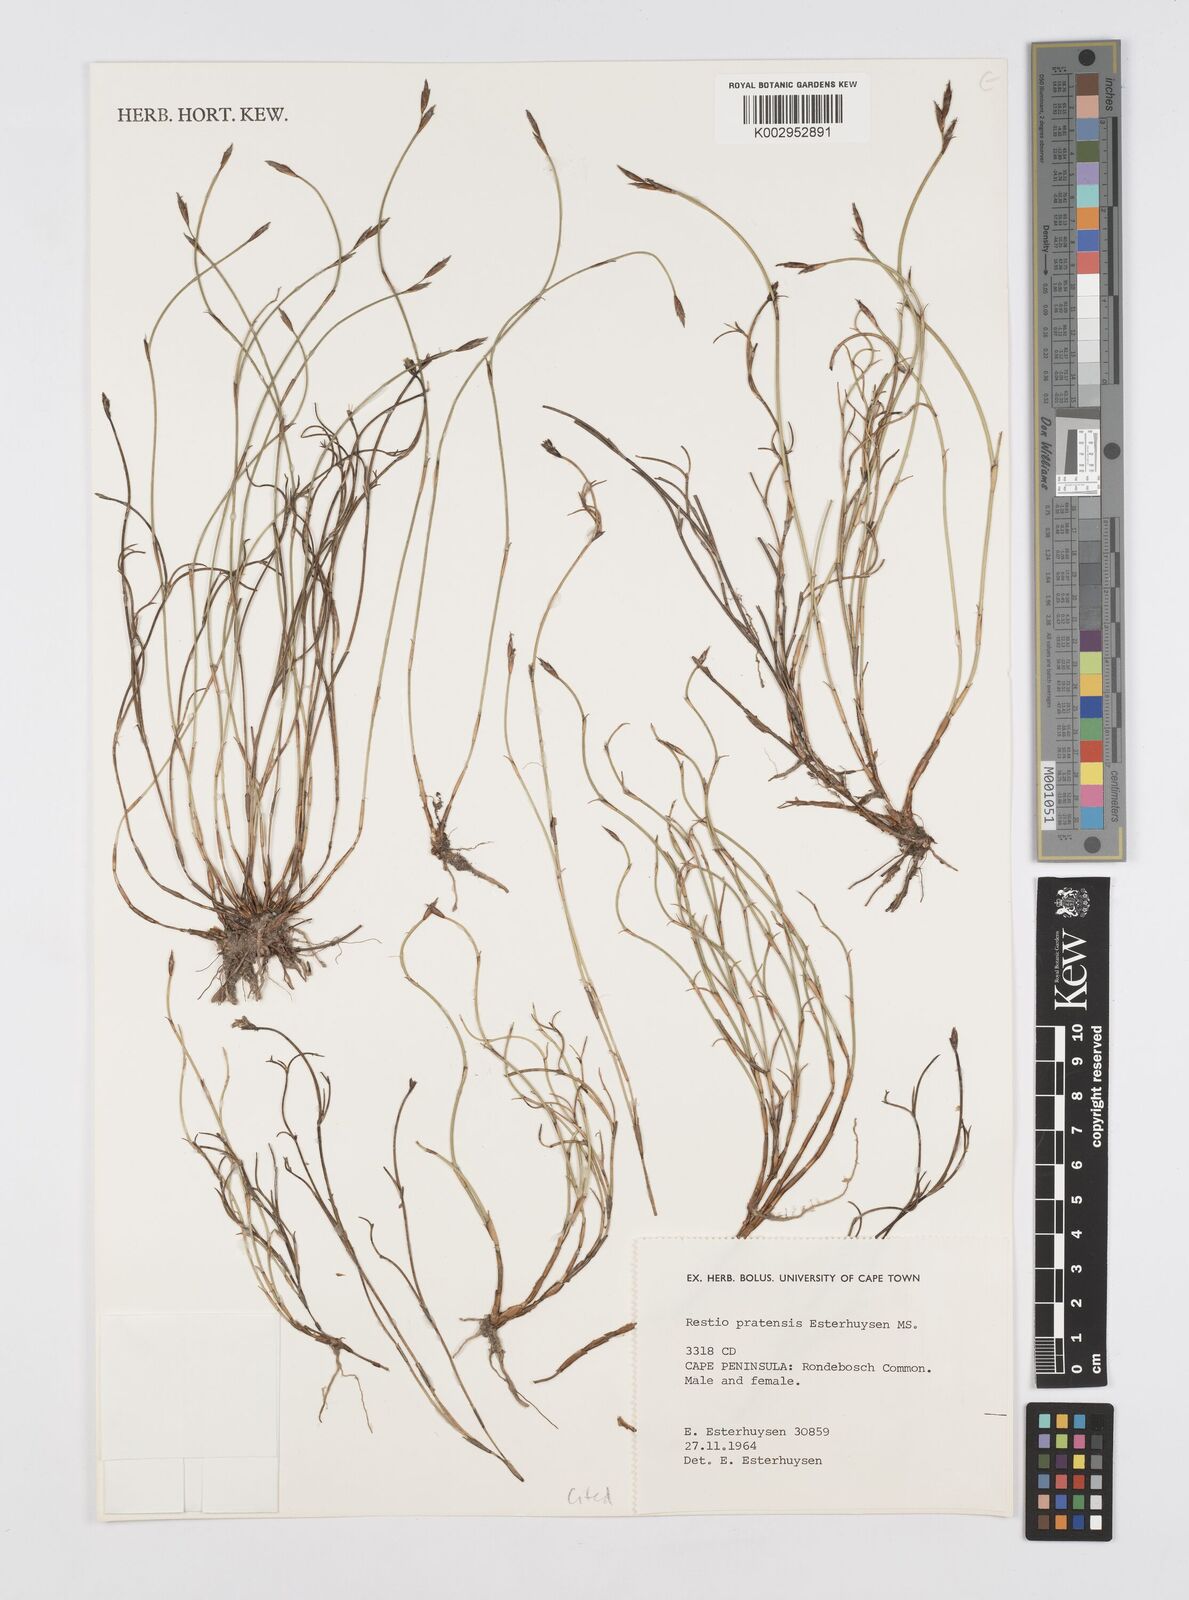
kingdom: Plantae
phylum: Tracheophyta
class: Liliopsida
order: Poales
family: Restionaceae
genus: Restio
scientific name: Restio pratensis
